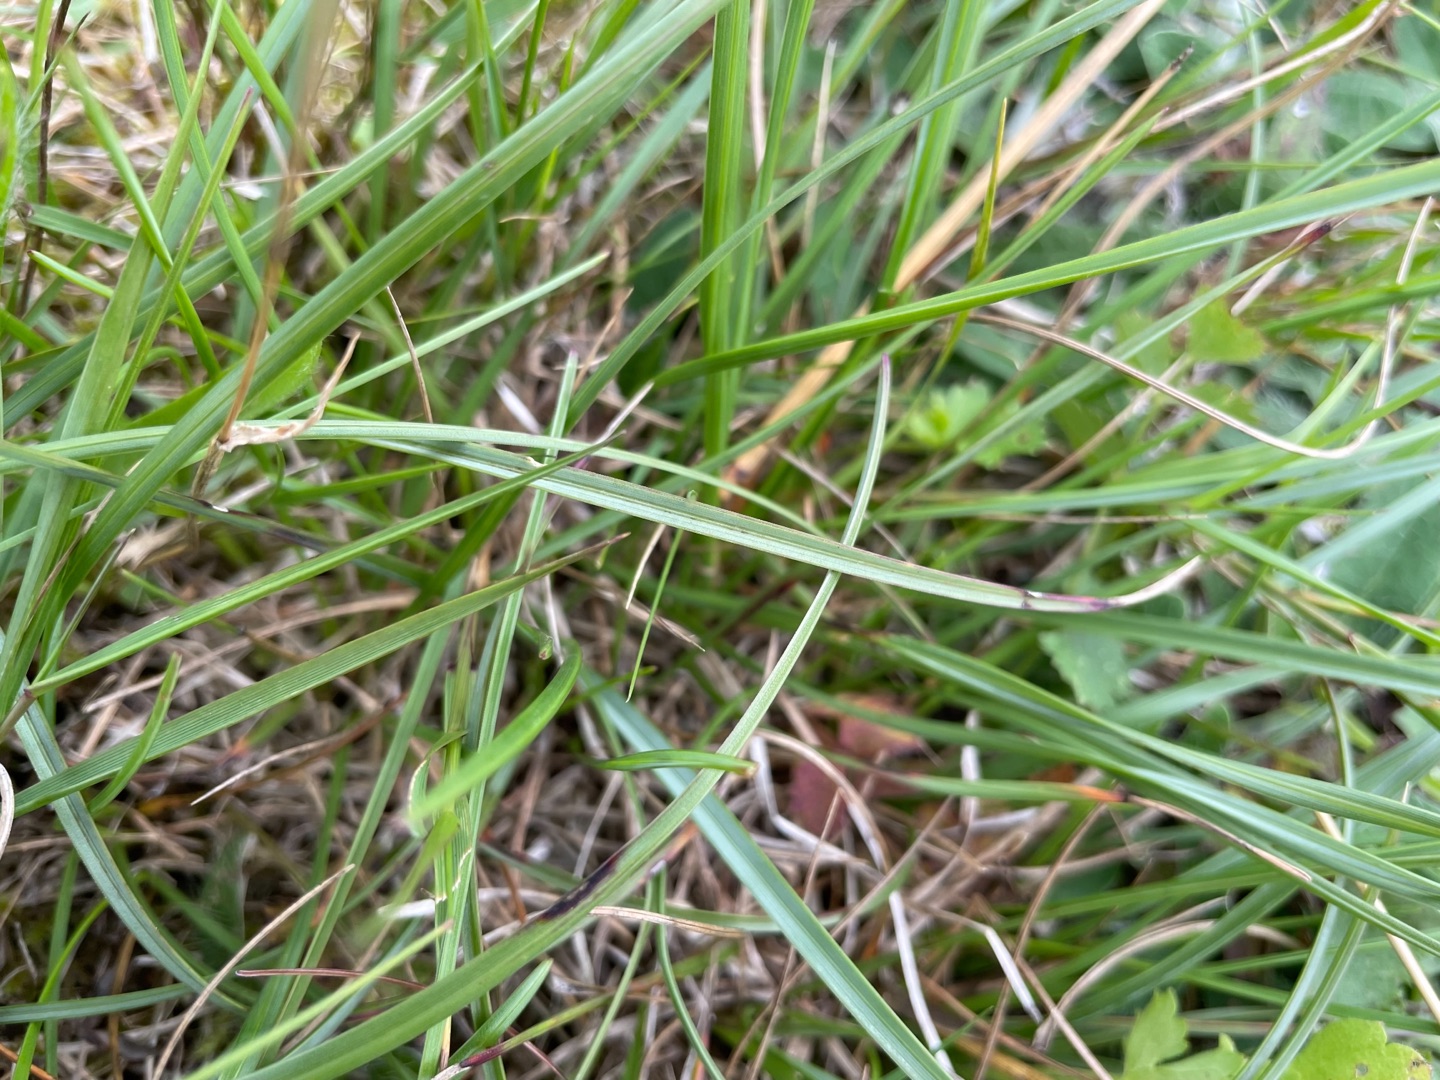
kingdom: Plantae
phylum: Tracheophyta
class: Liliopsida
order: Poales
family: Poaceae
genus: Helictochloa
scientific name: Helictochloa pratensis
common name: Eng-havre
